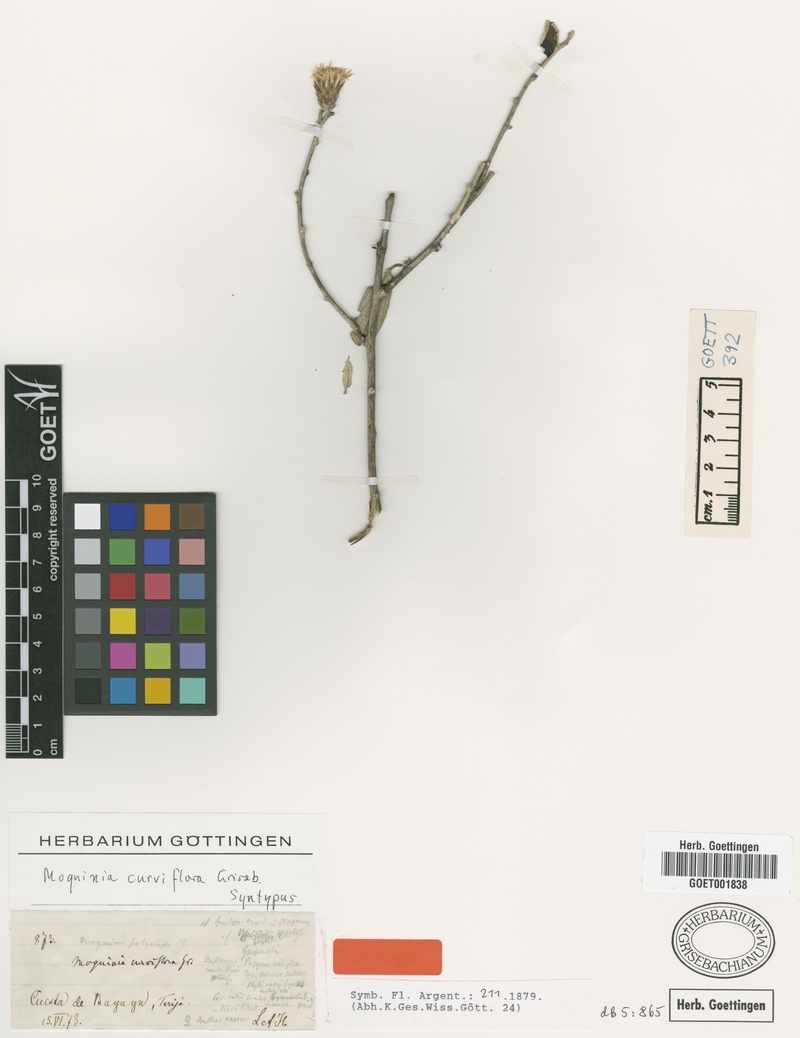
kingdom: Plantae
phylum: Tracheophyta
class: Magnoliopsida
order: Asterales
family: Asteraceae
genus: Gochnatia
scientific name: Gochnatia curviflora
